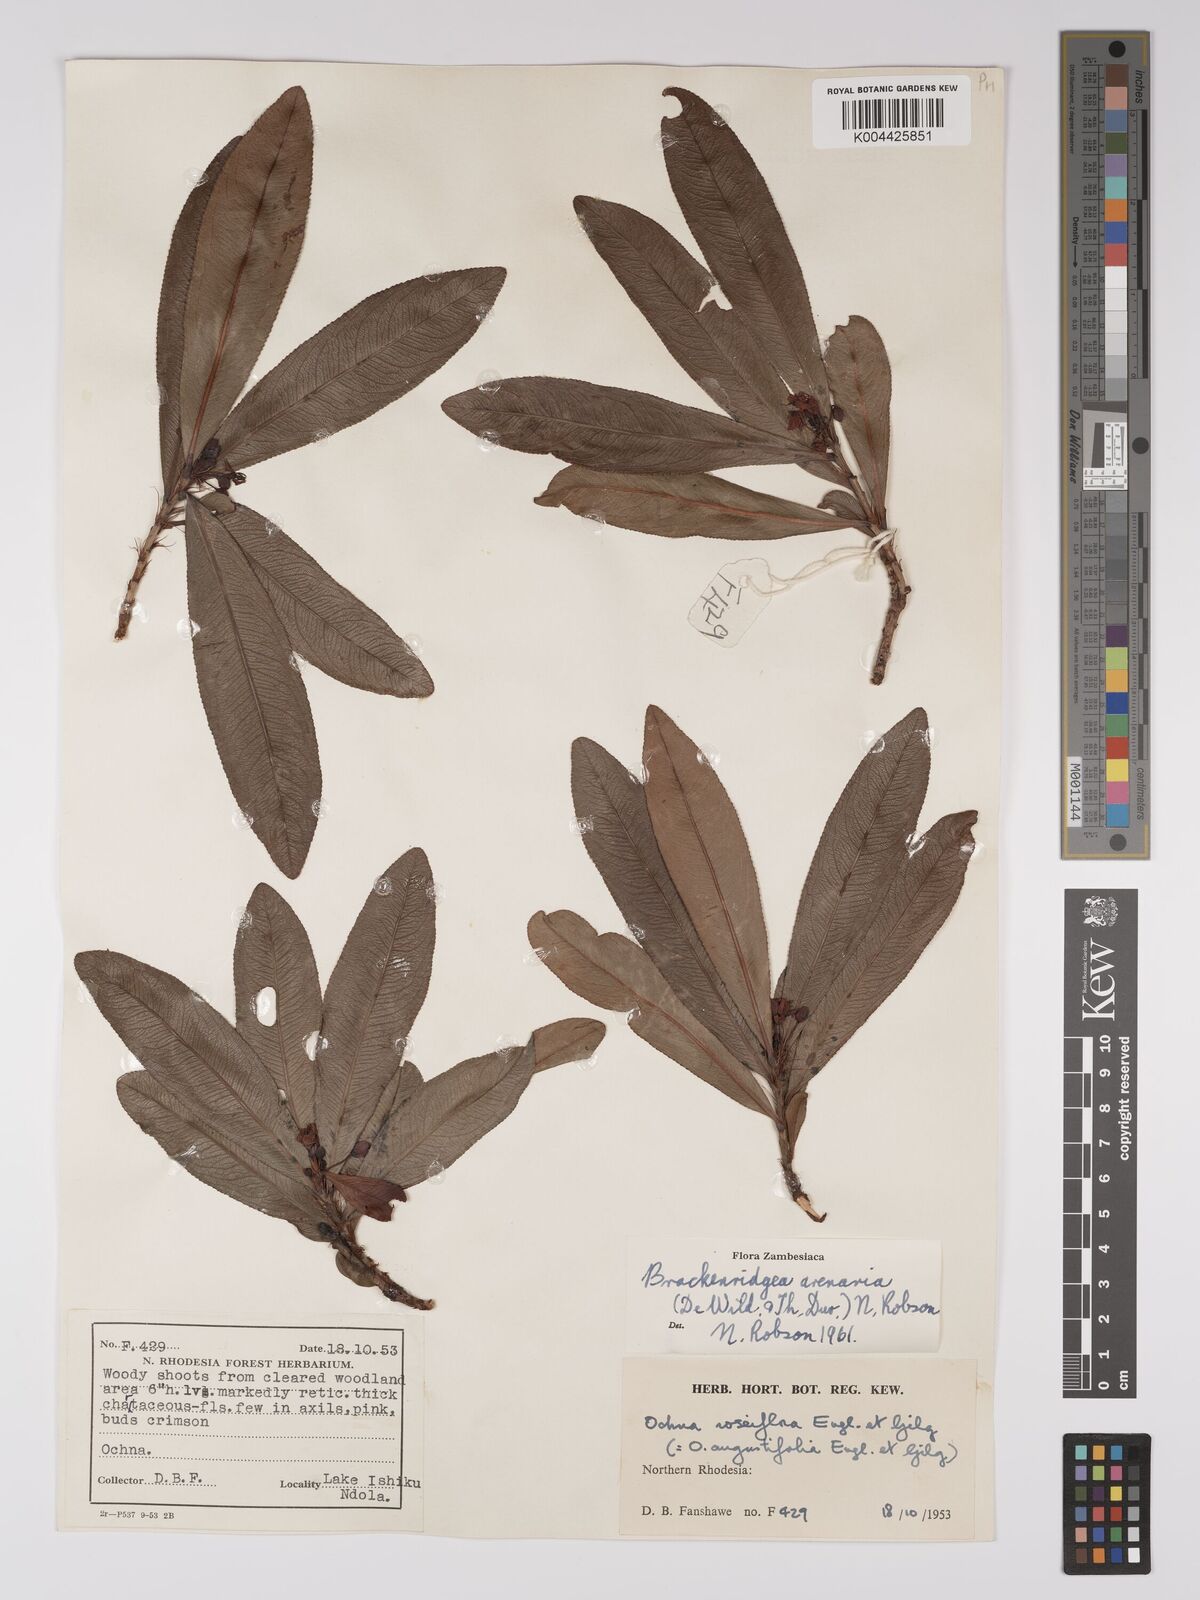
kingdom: Plantae
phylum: Tracheophyta
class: Magnoliopsida
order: Malpighiales
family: Ochnaceae
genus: Ochna
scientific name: Ochna arenaria
